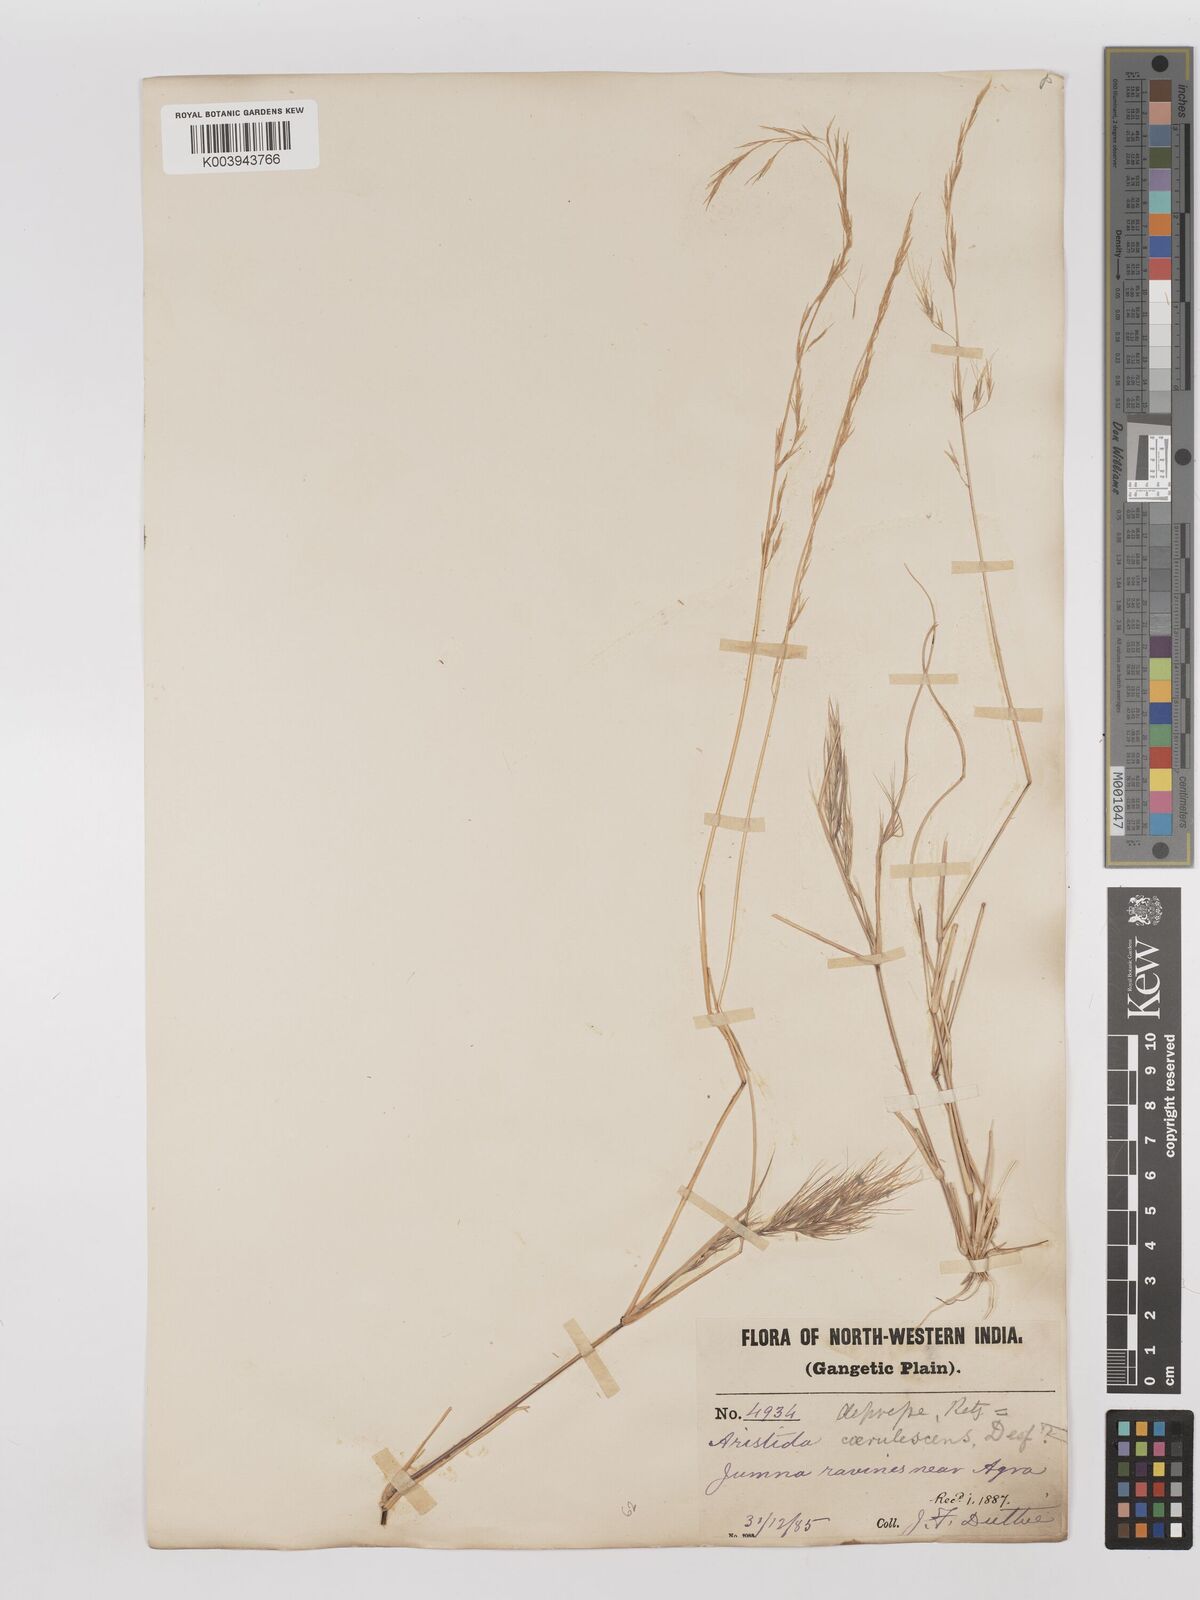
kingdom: Plantae
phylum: Tracheophyta
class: Liliopsida
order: Poales
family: Poaceae
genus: Aristida
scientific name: Aristida adscensionis
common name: Sixweeks threeawn
